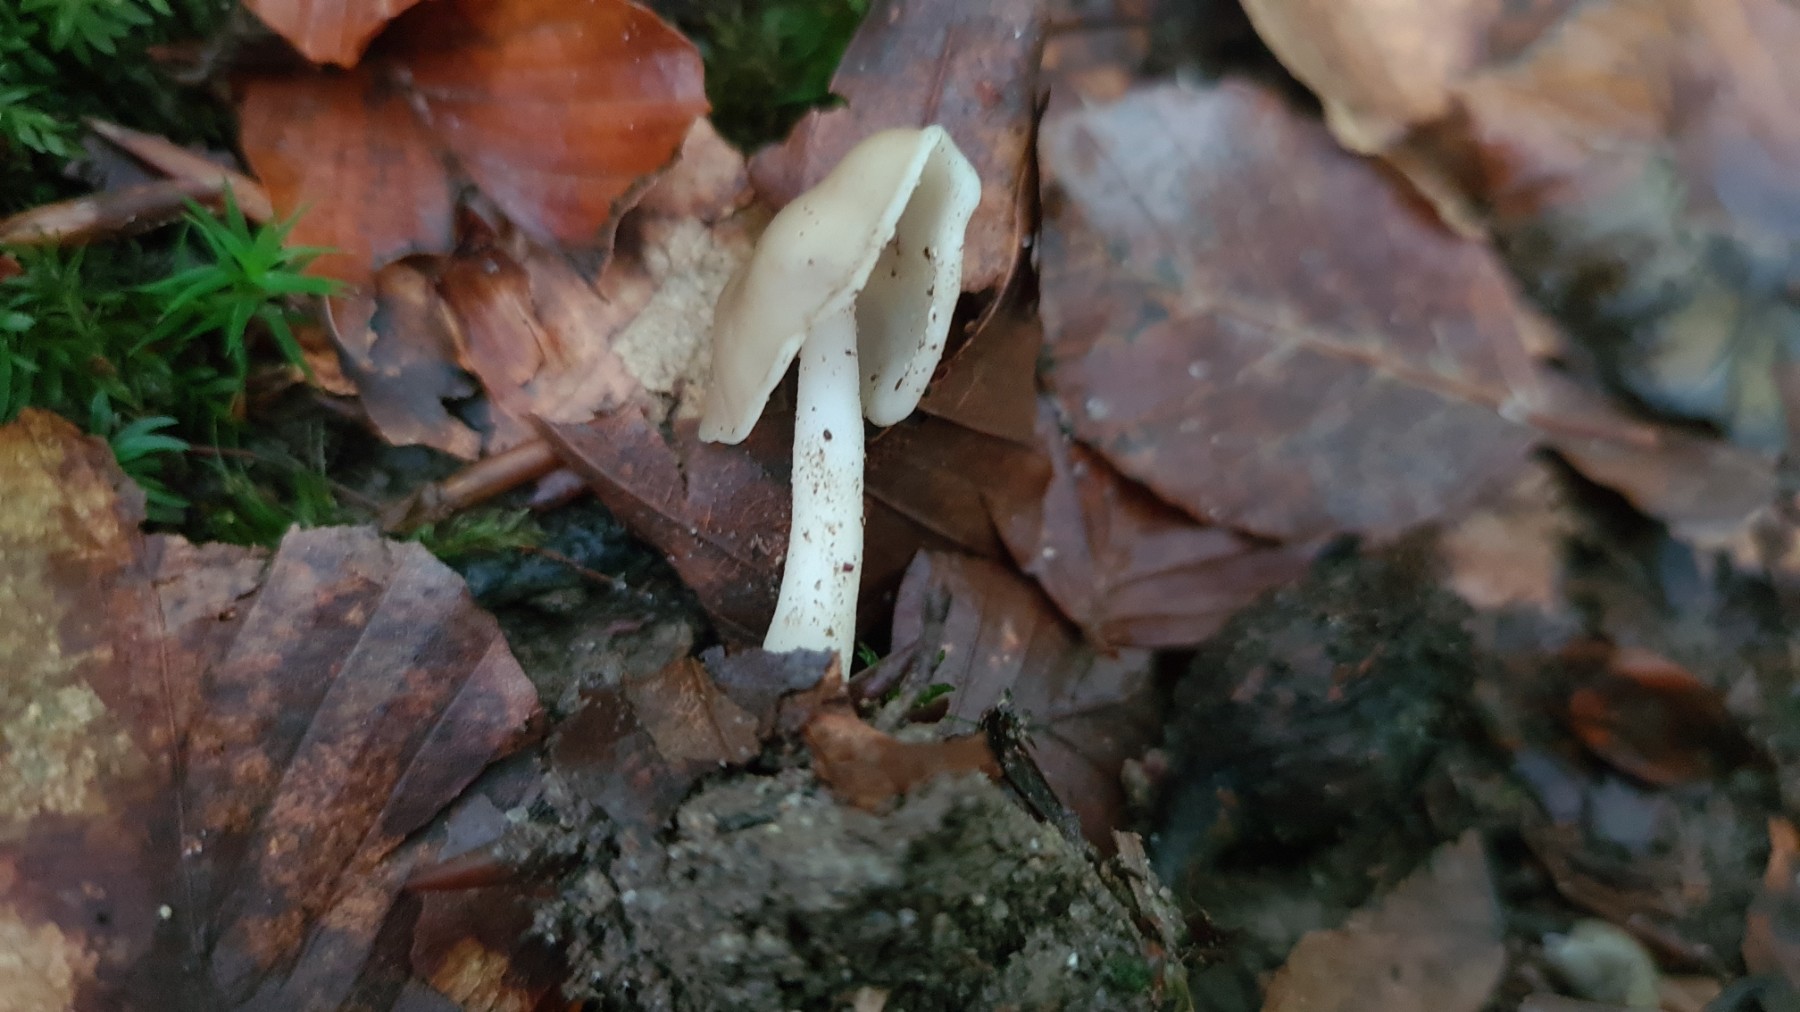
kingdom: Fungi
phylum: Ascomycota
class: Pezizomycetes
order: Pezizales
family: Helvellaceae
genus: Helvella
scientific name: Helvella elastica
